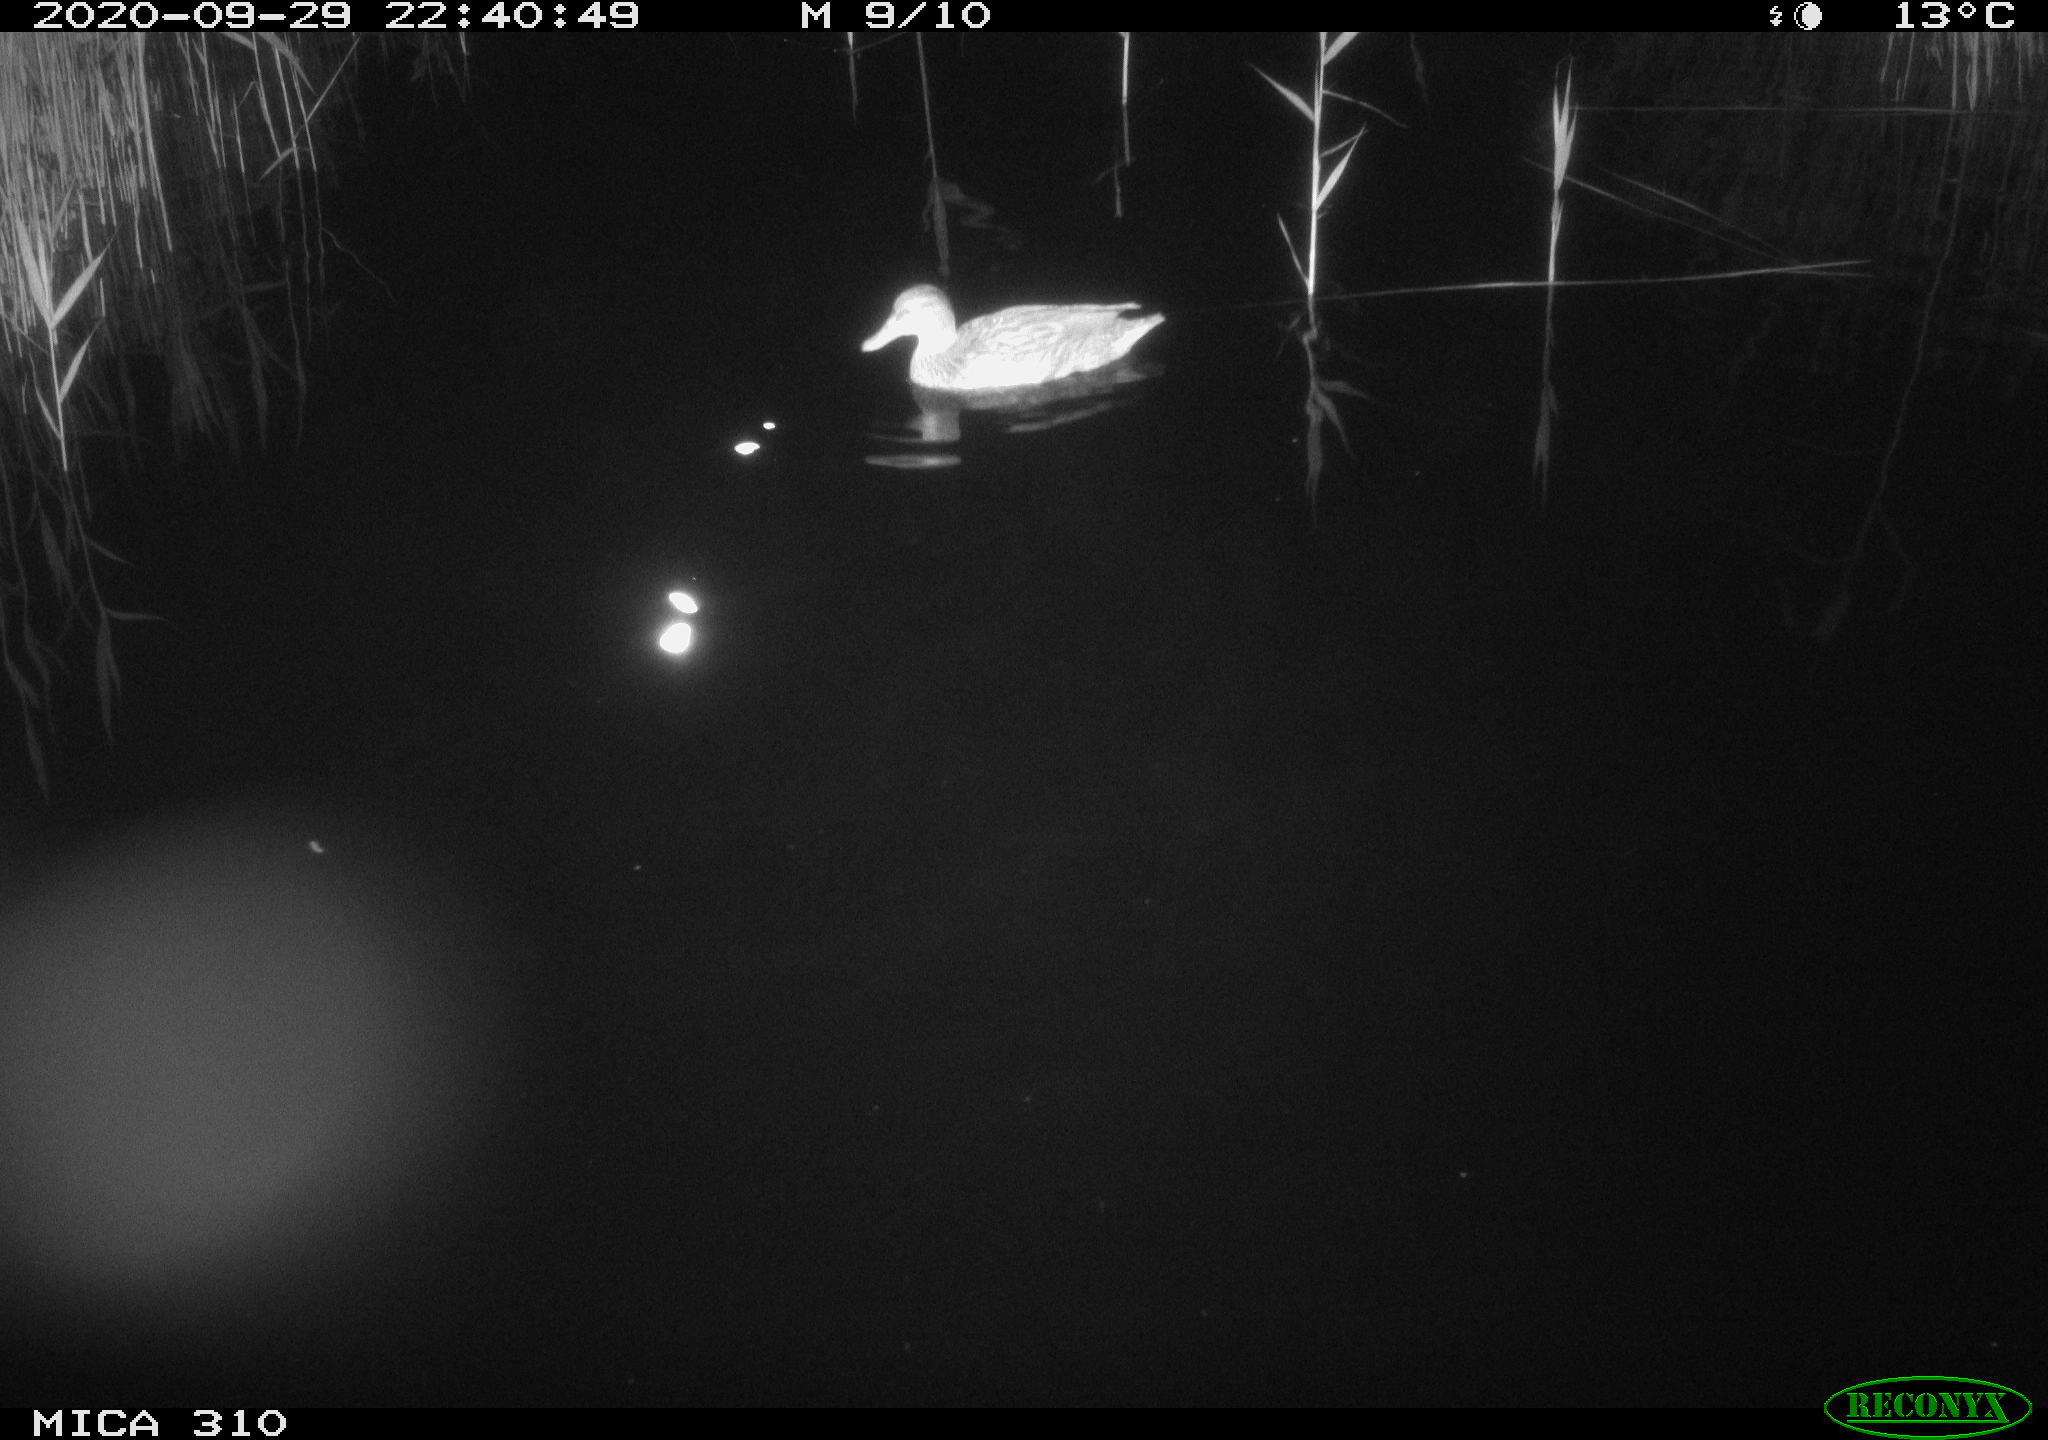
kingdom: Animalia
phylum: Chordata
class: Aves
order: Anseriformes
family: Anatidae
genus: Anas
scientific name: Anas platyrhynchos
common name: Mallard
